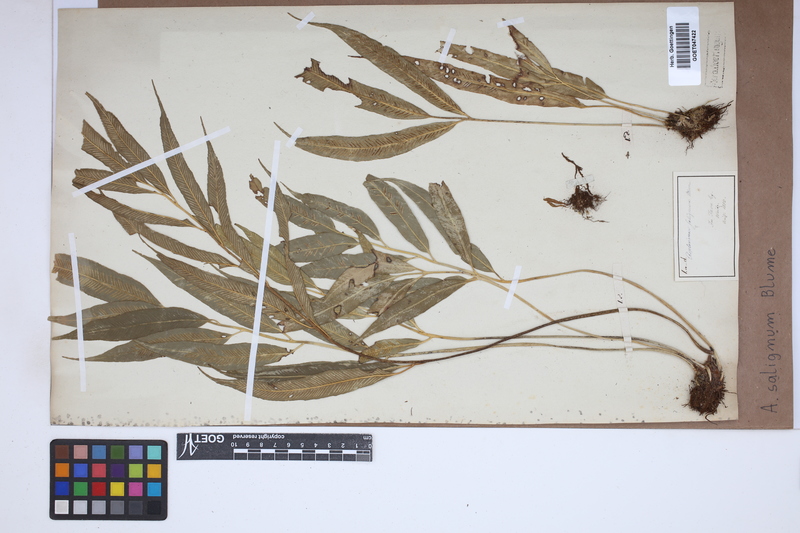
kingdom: Plantae
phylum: Tracheophyta
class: Polypodiopsida
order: Polypodiales
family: Aspleniaceae
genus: Asplenium
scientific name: Asplenium salignum
